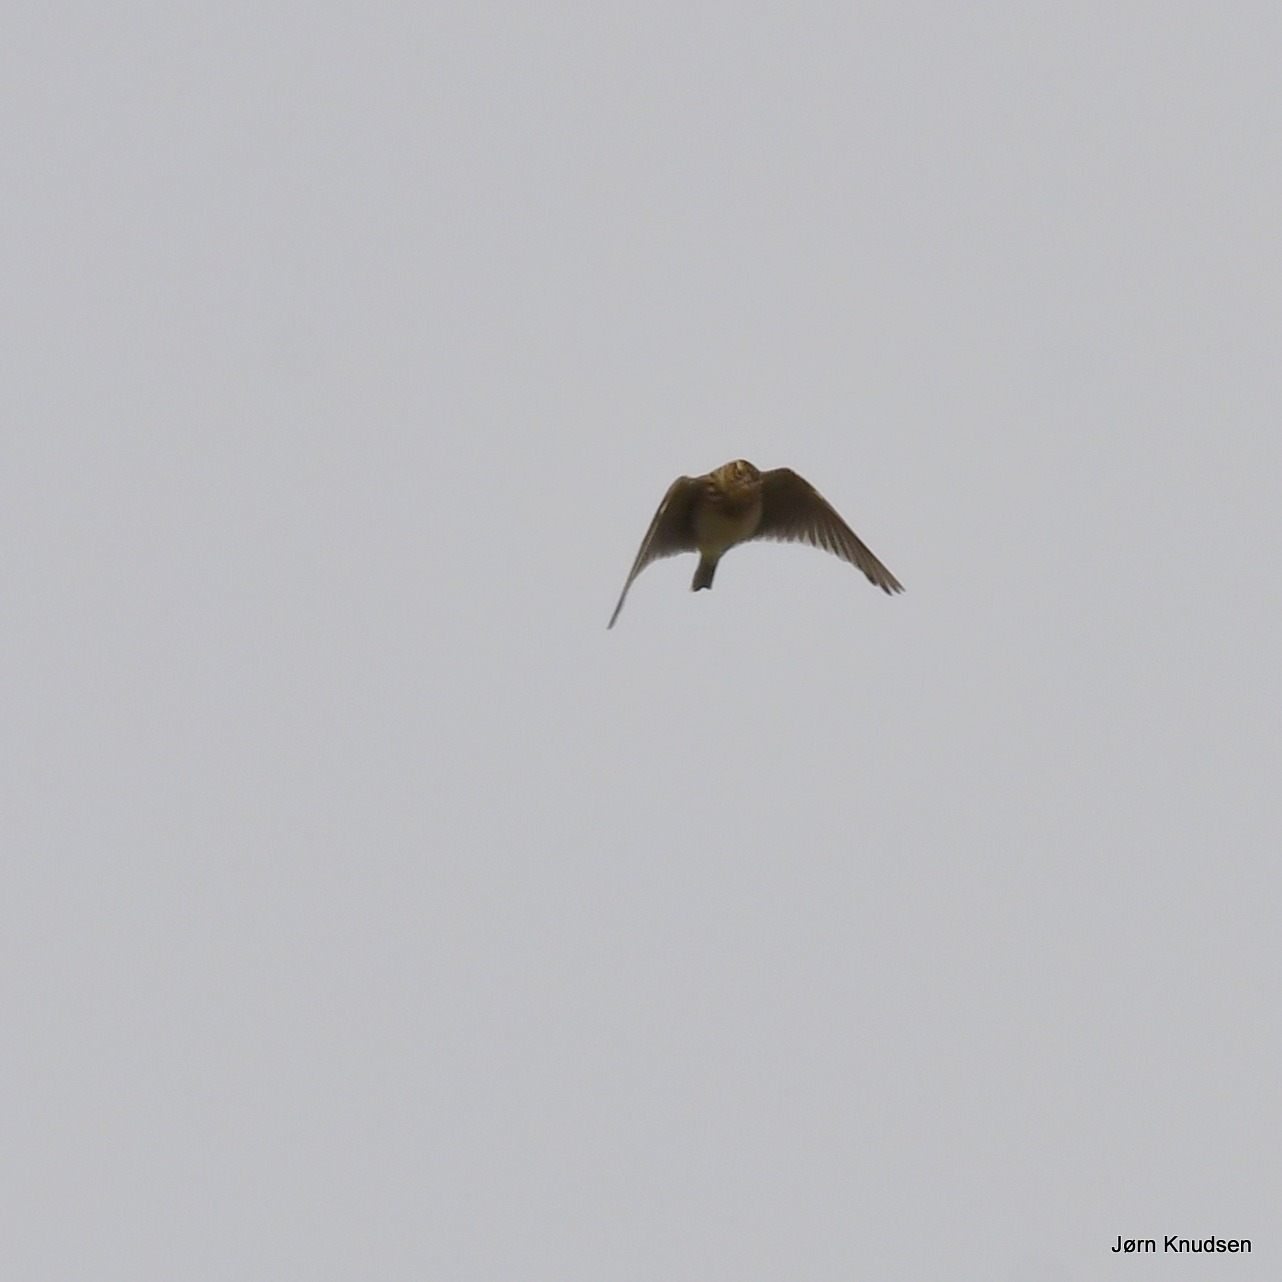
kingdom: Animalia
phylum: Chordata
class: Aves
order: Passeriformes
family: Alaudidae
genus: Alauda
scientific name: Alauda arvensis
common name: Sanglærke
